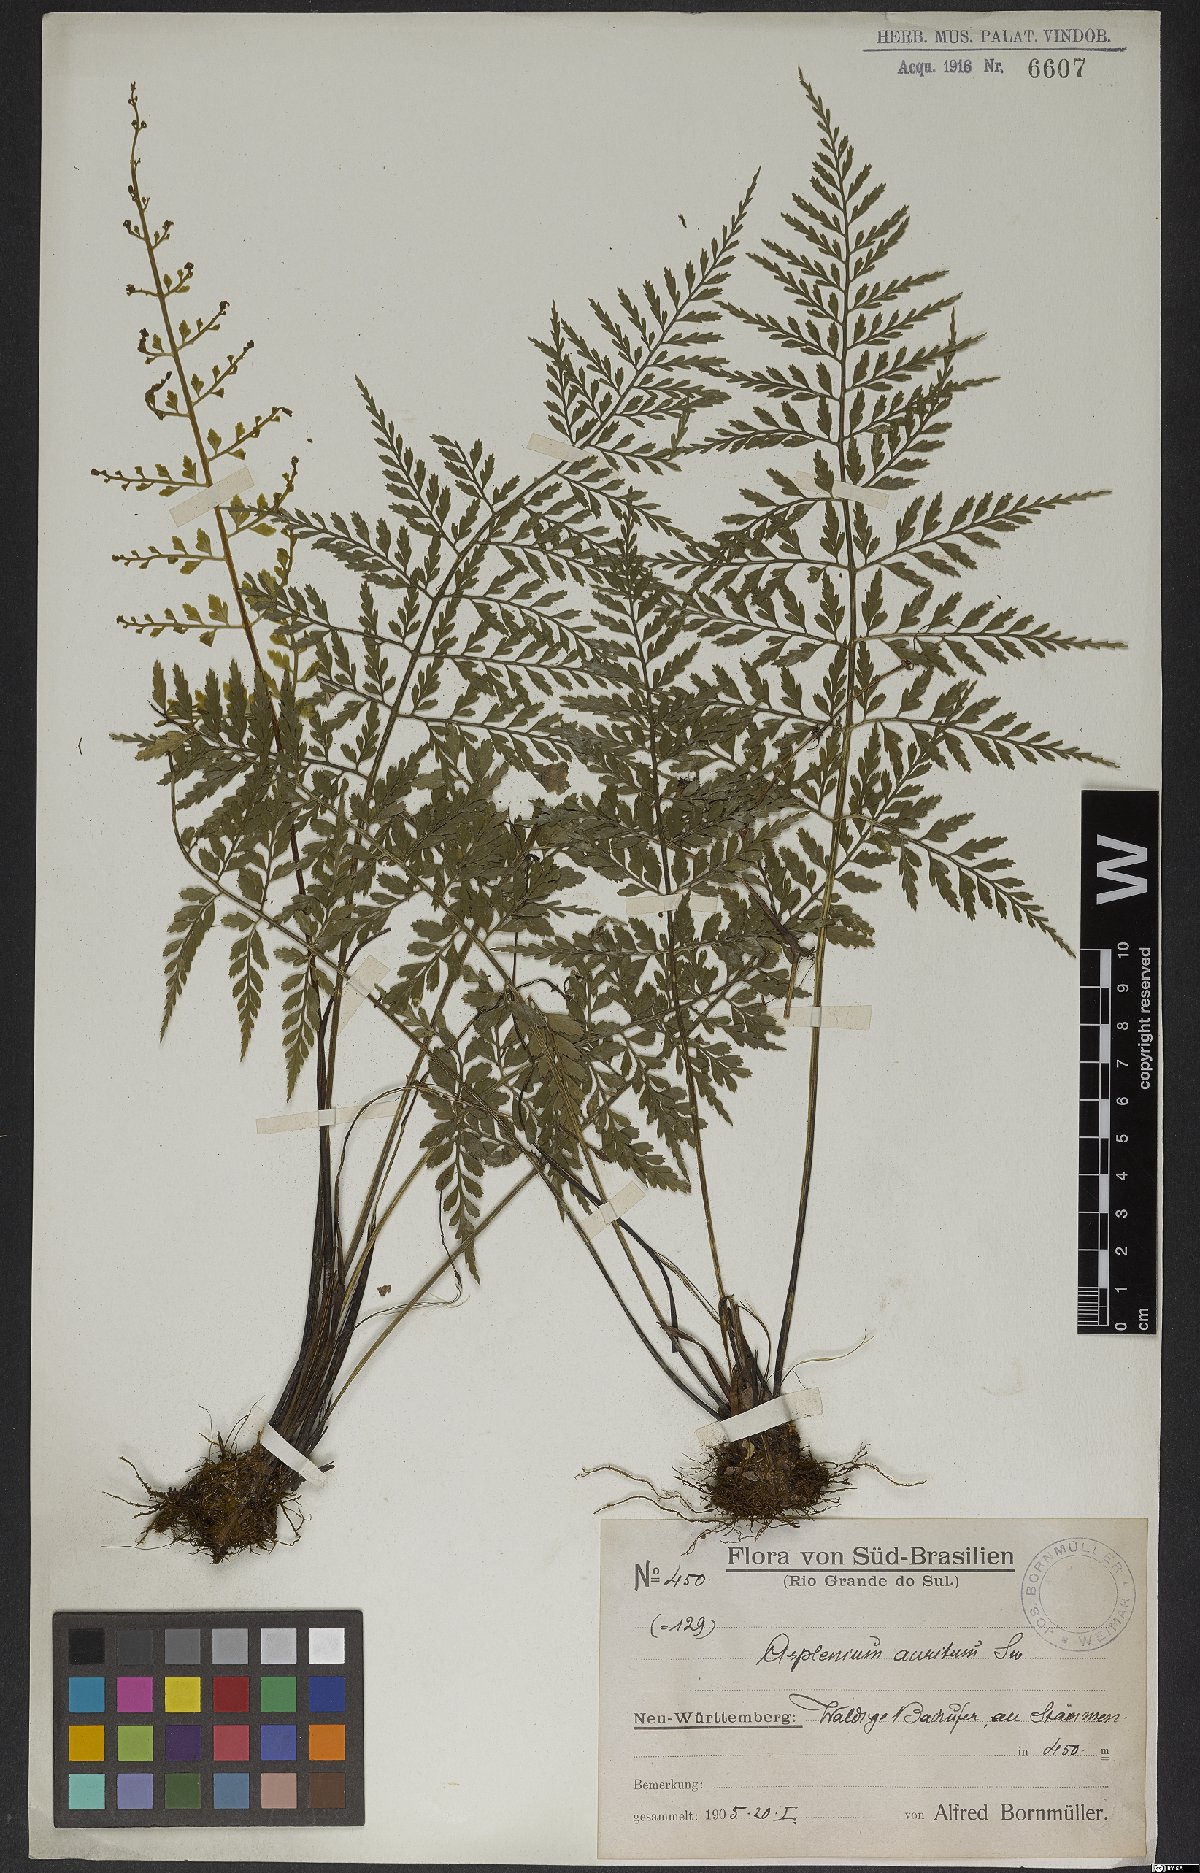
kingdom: Plantae
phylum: Tracheophyta
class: Polypodiopsida
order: Polypodiales
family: Aspleniaceae
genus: Asplenium
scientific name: Asplenium sulcatum
